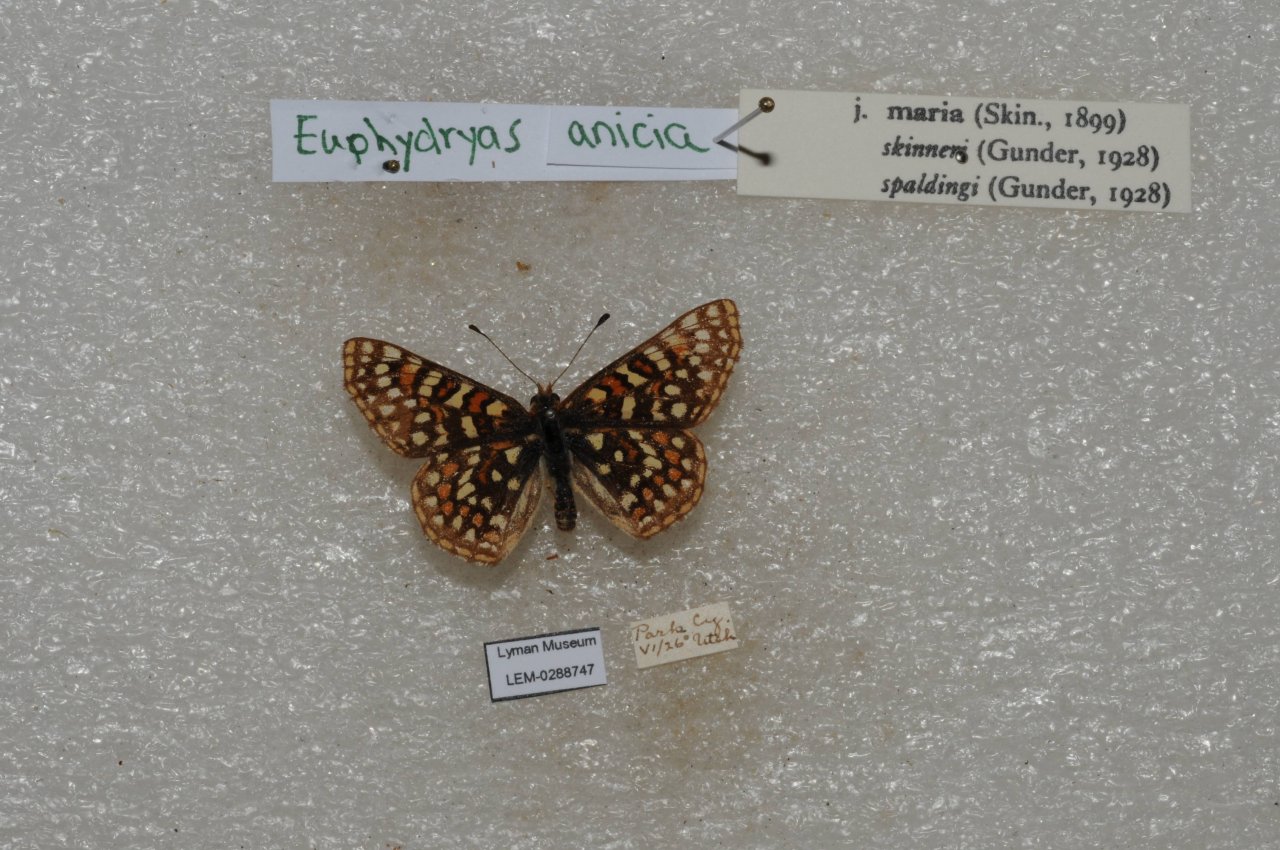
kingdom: Animalia
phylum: Arthropoda
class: Insecta
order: Lepidoptera
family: Nymphalidae
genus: Occidryas
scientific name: Occidryas anicia
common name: Anicia Checkerspot
